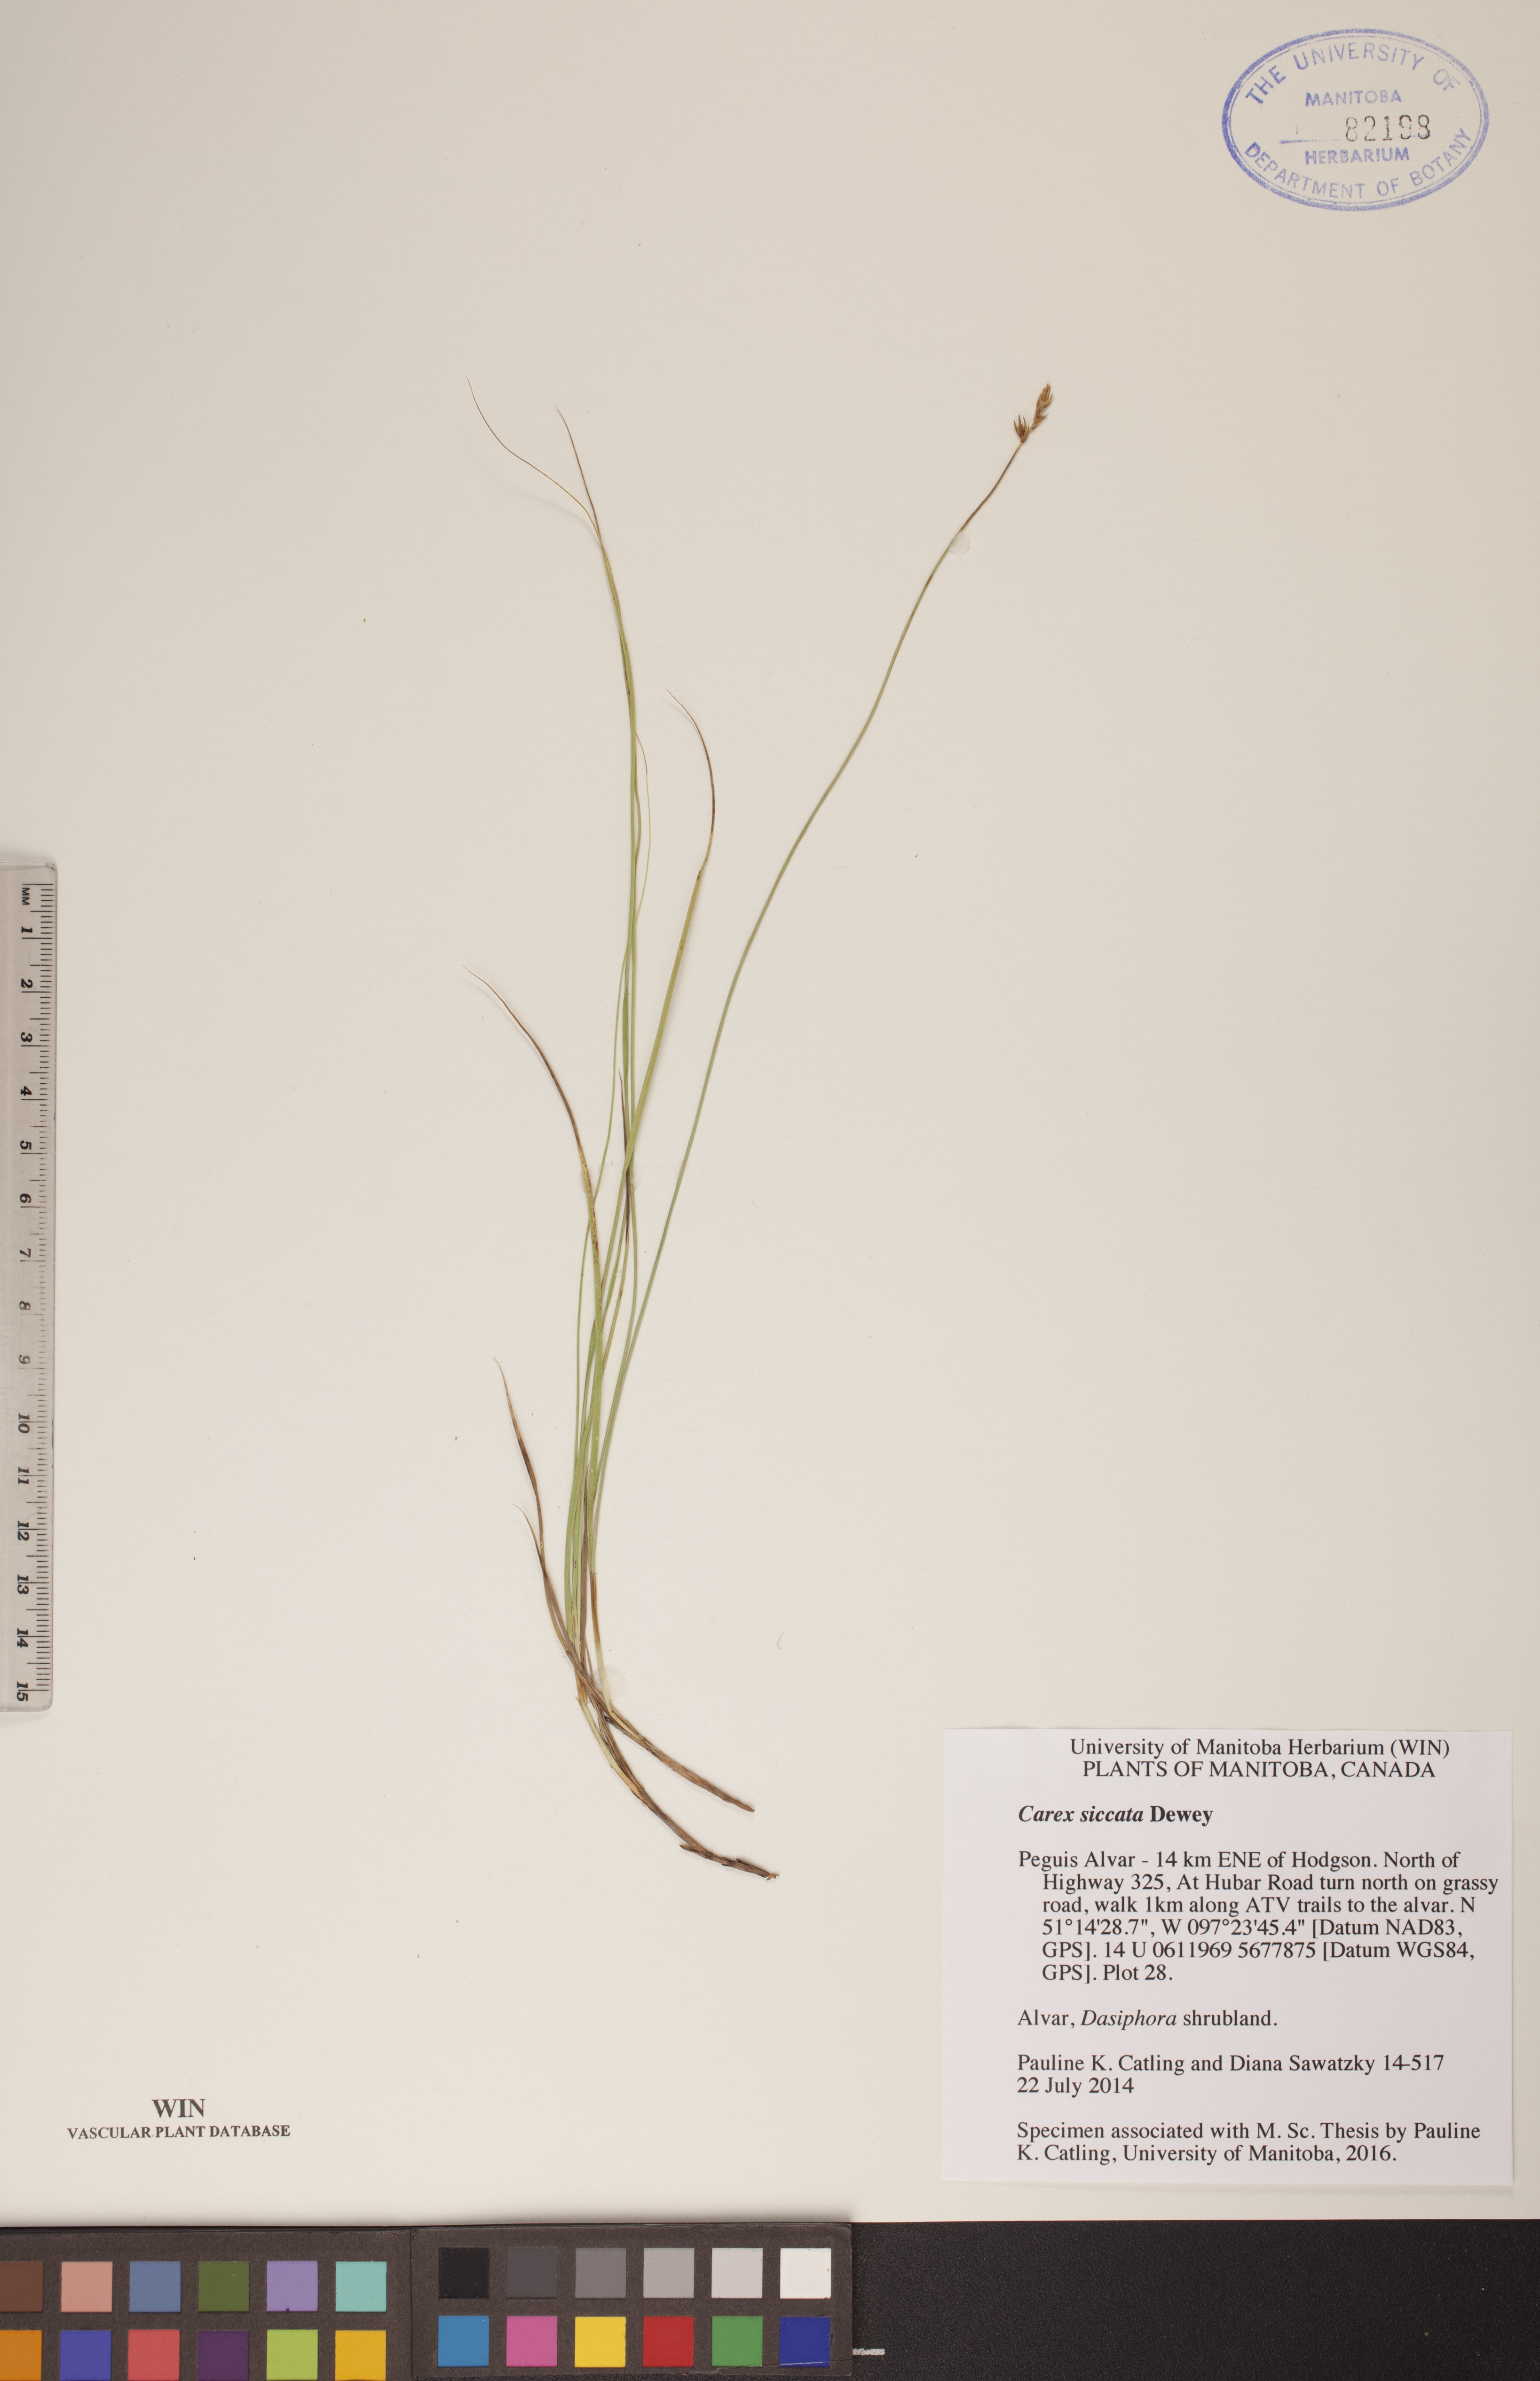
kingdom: Plantae
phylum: Tracheophyta
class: Liliopsida
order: Poales
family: Cyperaceae
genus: Carex
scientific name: Carex siccata
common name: Dry sedge
